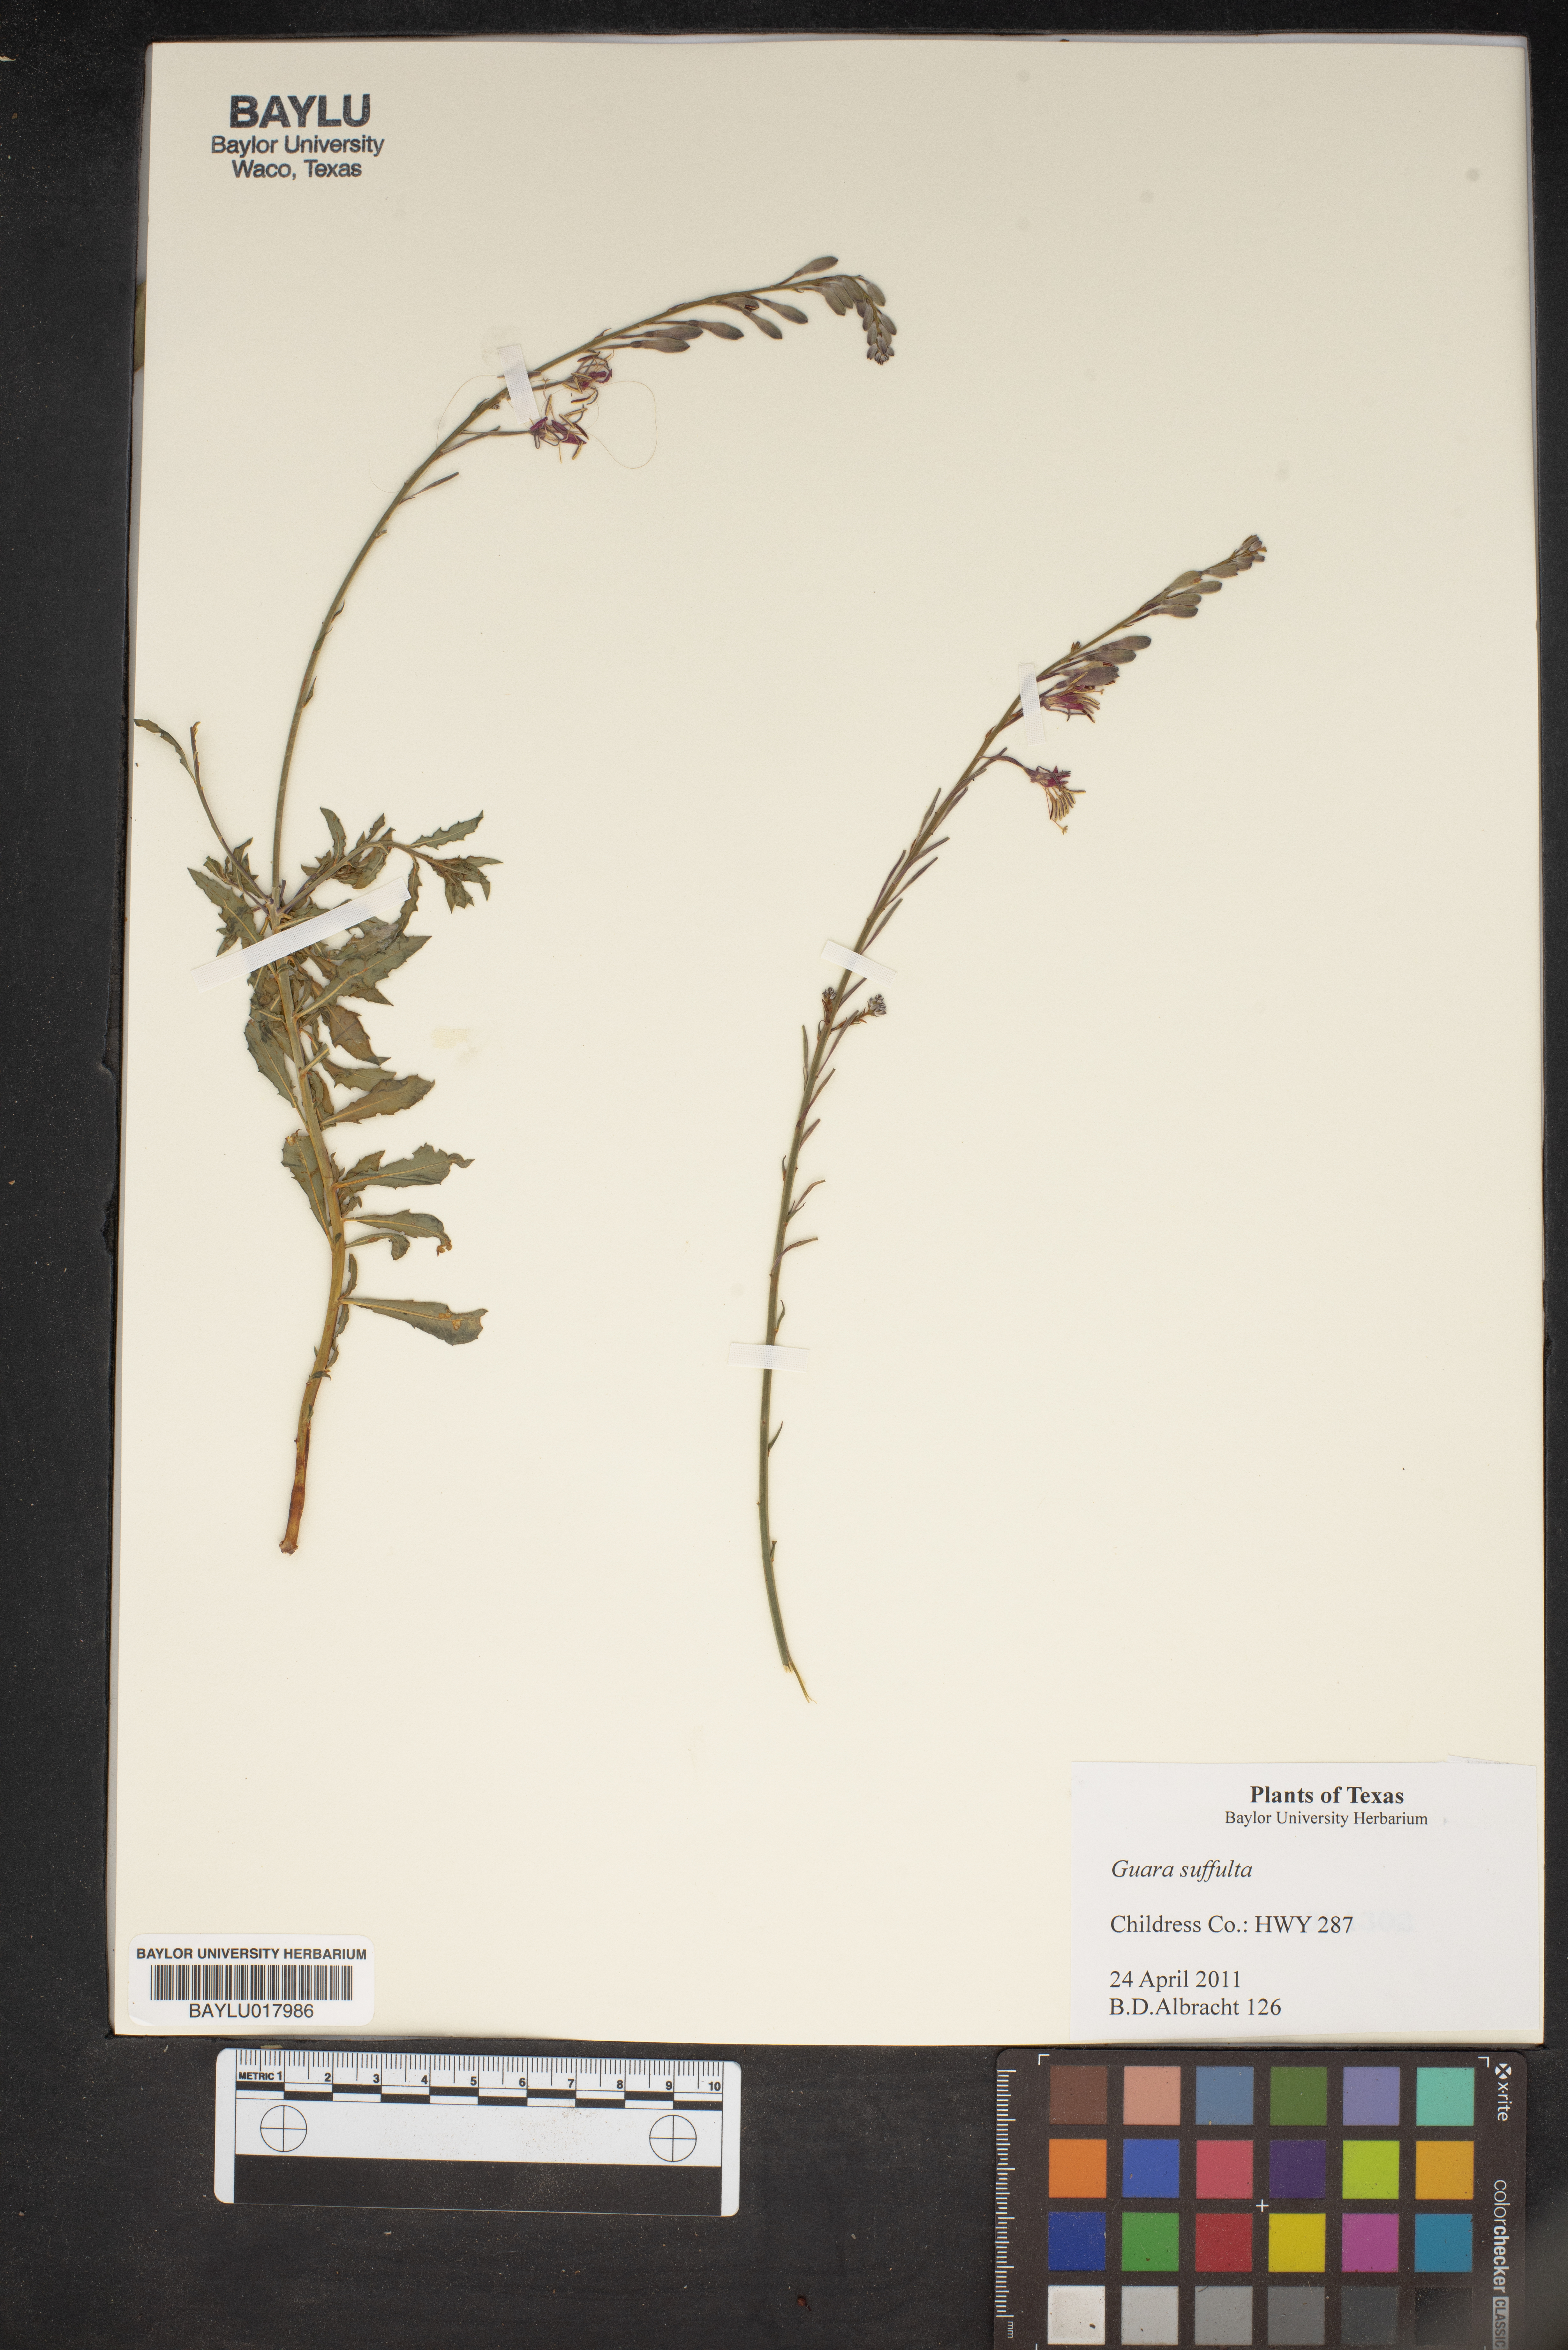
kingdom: Plantae
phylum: Tracheophyta
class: Magnoliopsida
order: Myrtales
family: Onagraceae
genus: Oenothera
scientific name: Oenothera Gaura suffulta
